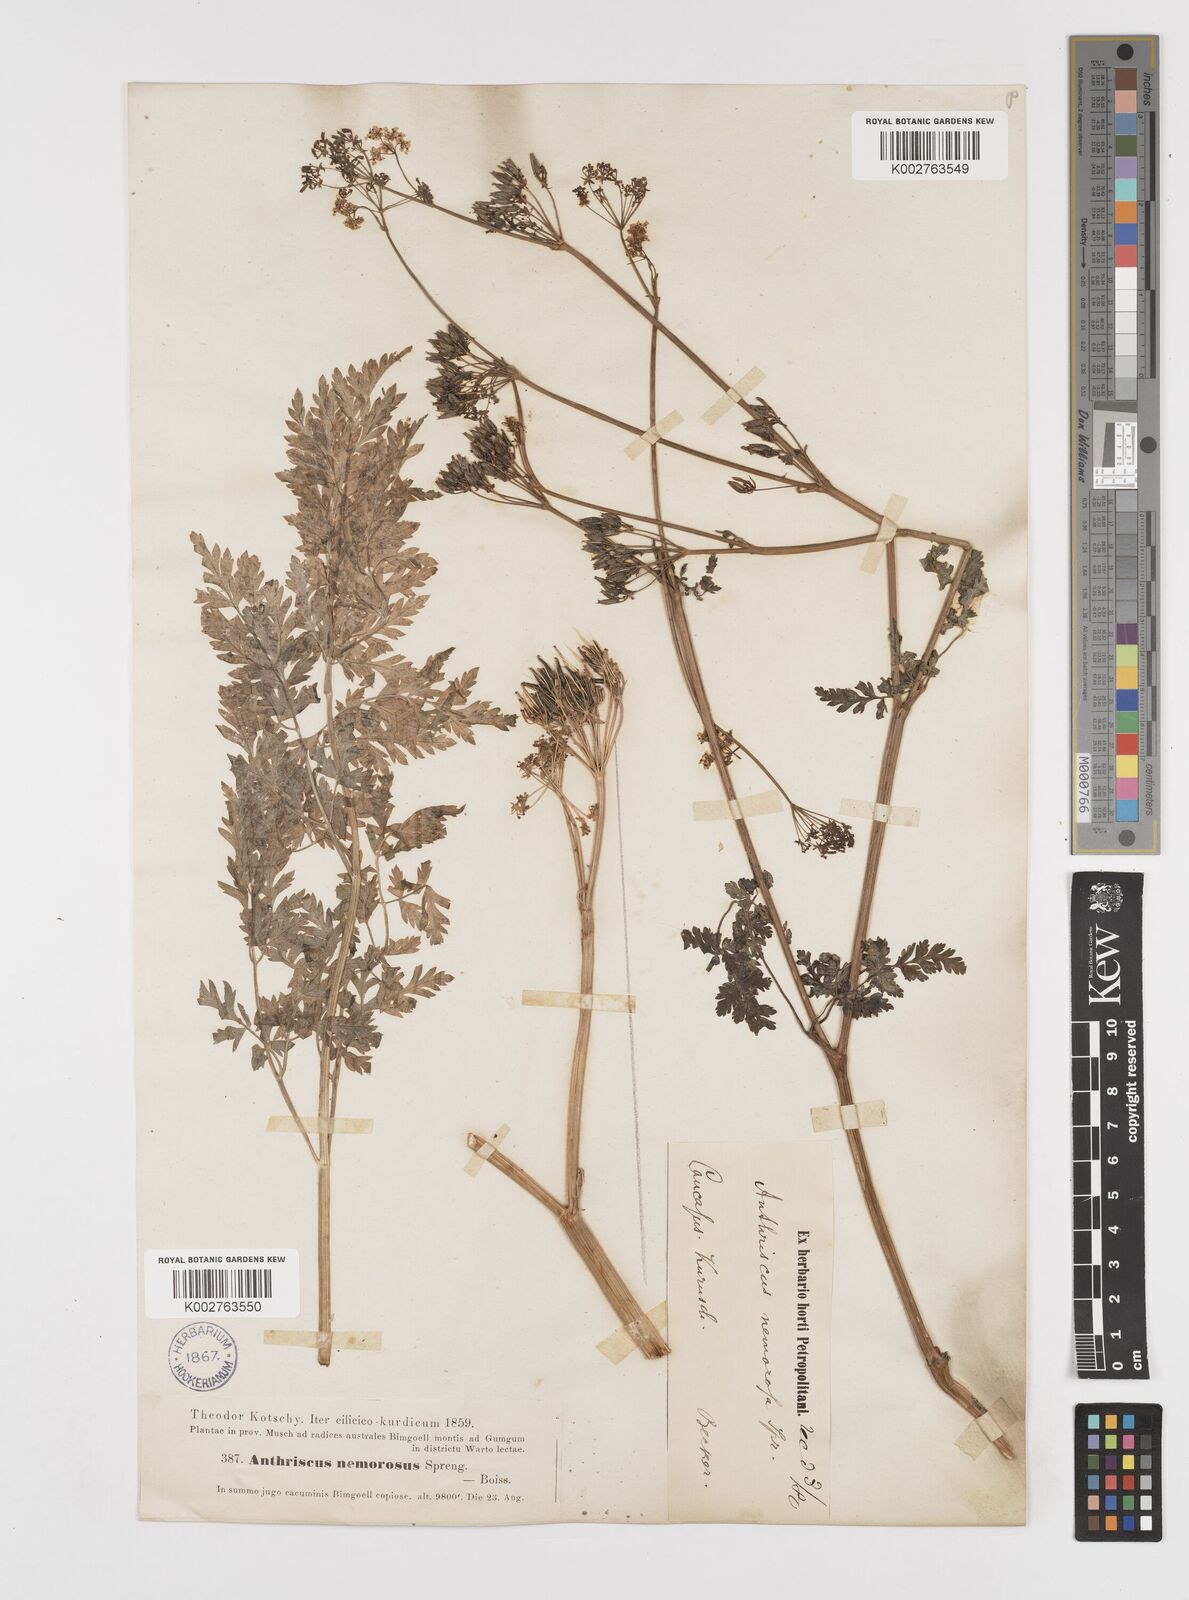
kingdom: Plantae
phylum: Tracheophyta
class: Magnoliopsida
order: Apiales
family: Apiaceae
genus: Anthriscus
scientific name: Anthriscus sylvestris
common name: Cow parsley
